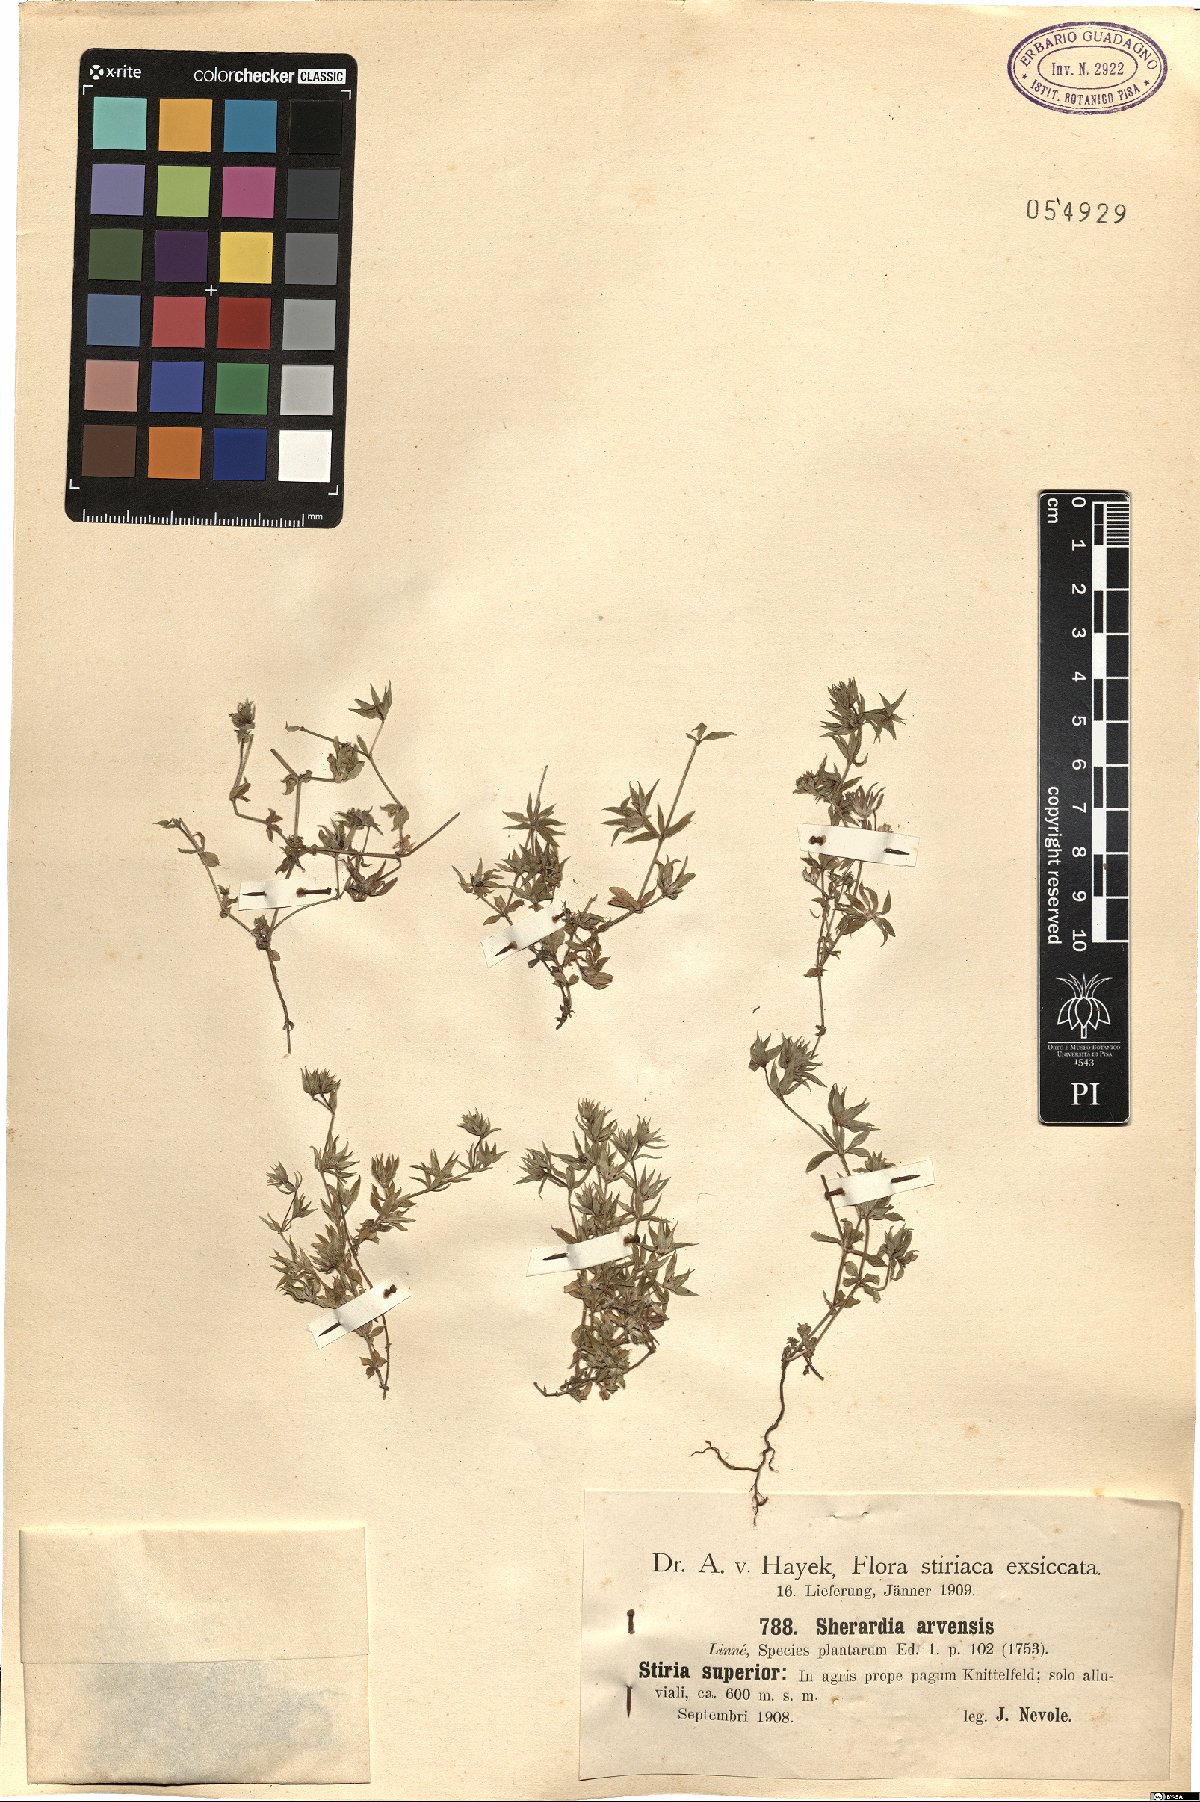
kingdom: Plantae
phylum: Tracheophyta
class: Magnoliopsida
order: Gentianales
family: Rubiaceae
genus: Sherardia
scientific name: Sherardia arvensis
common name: Field madder
